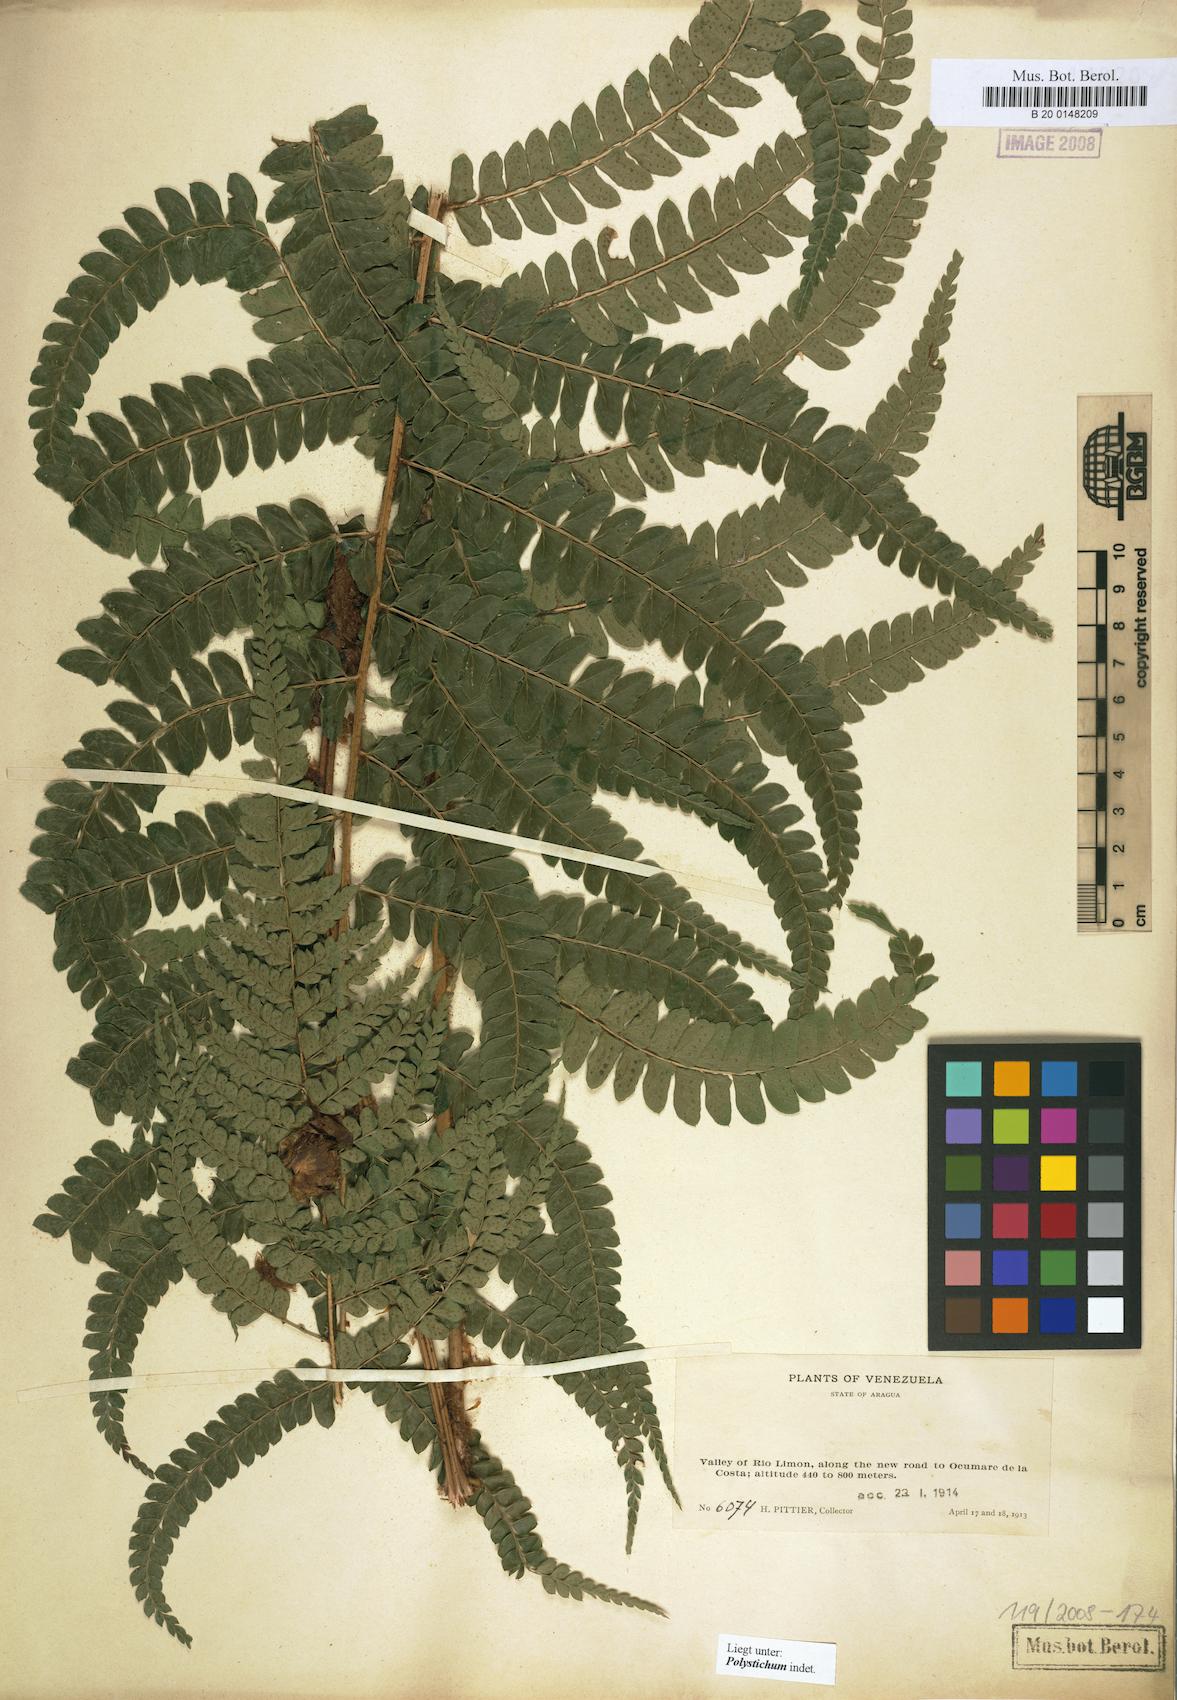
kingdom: Plantae
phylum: Tracheophyta
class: Polypodiopsida
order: Polypodiales
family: Dryopteridaceae
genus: Polystichum
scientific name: Polystichum
